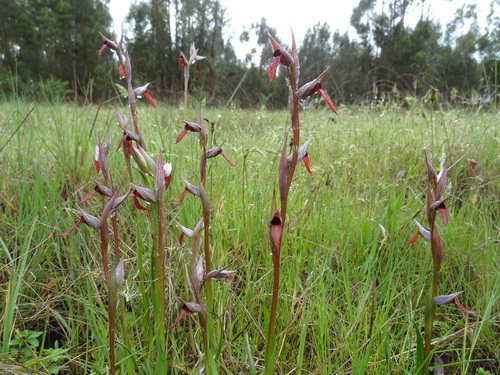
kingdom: Plantae
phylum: Tracheophyta
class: Liliopsida
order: Asparagales
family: Orchidaceae
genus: Serapias
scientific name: Serapias strictiflora
